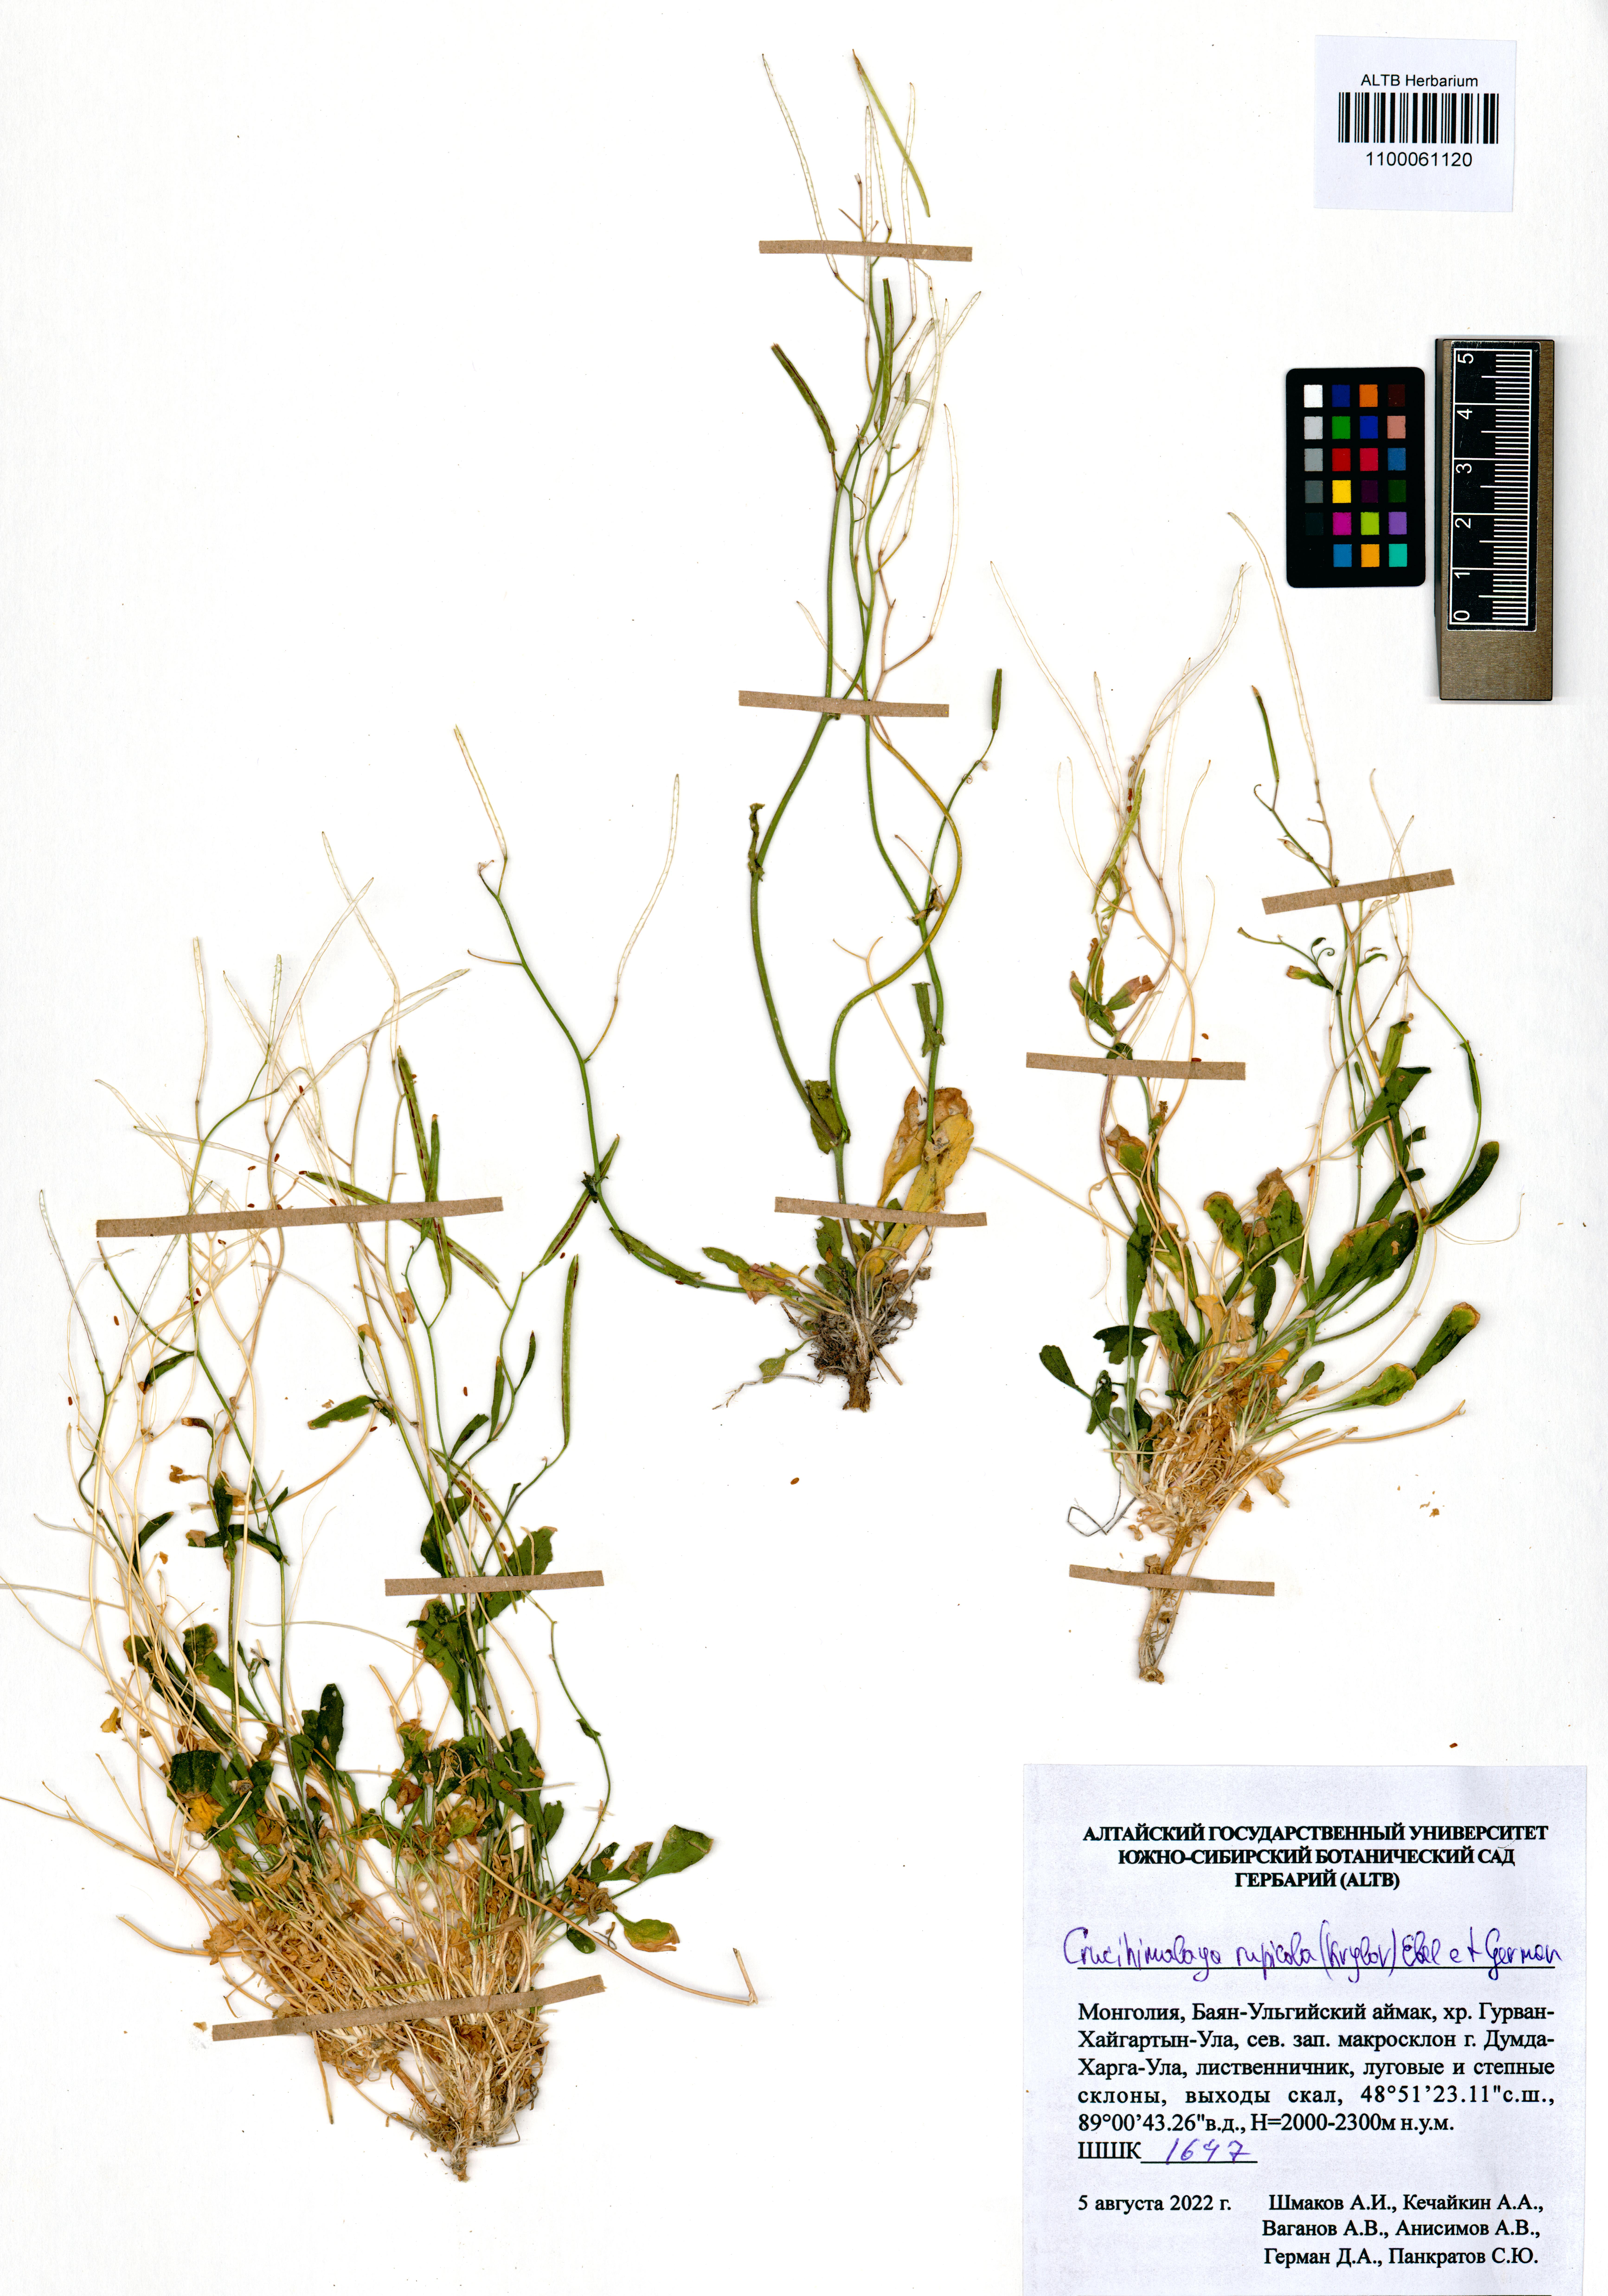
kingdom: Plantae
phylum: Tracheophyta
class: Magnoliopsida
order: Brassicales
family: Brassicaceae
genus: Crucihimalaya
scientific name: Crucihimalaya rupicola
